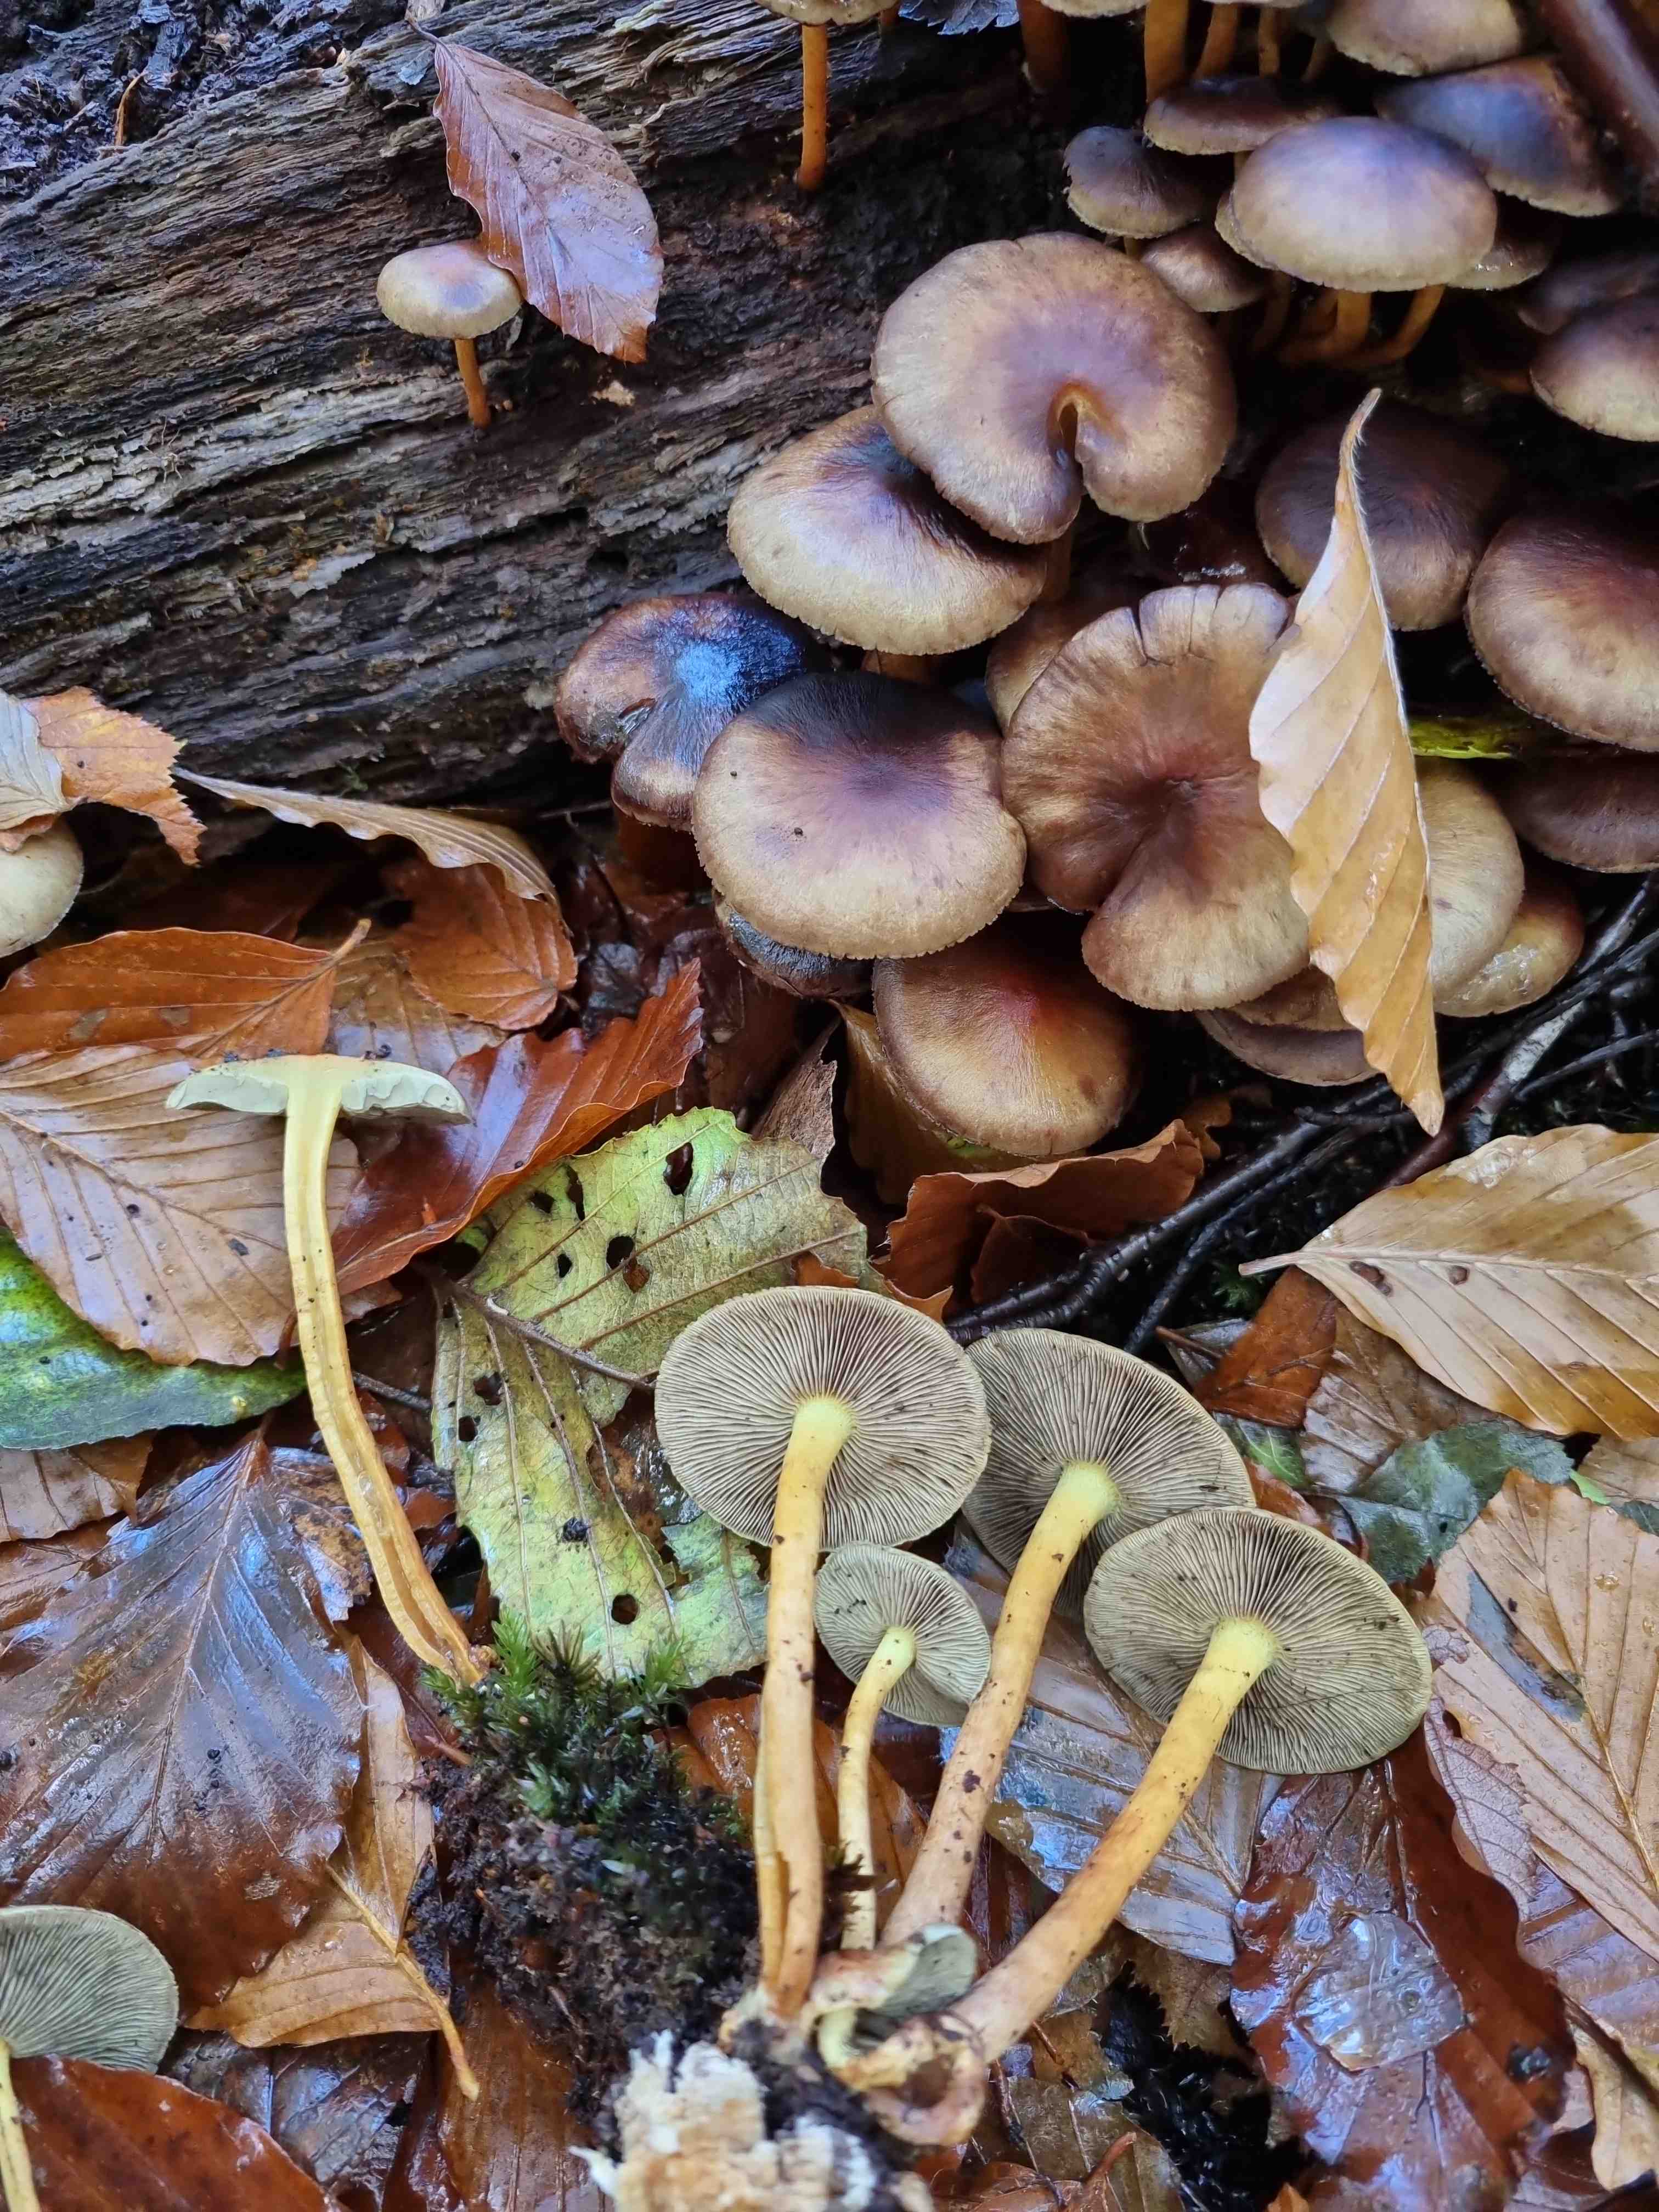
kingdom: Fungi
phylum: Basidiomycota
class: Agaricomycetes
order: Agaricales
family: Strophariaceae
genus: Hypholoma
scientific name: Hypholoma fasciculare
